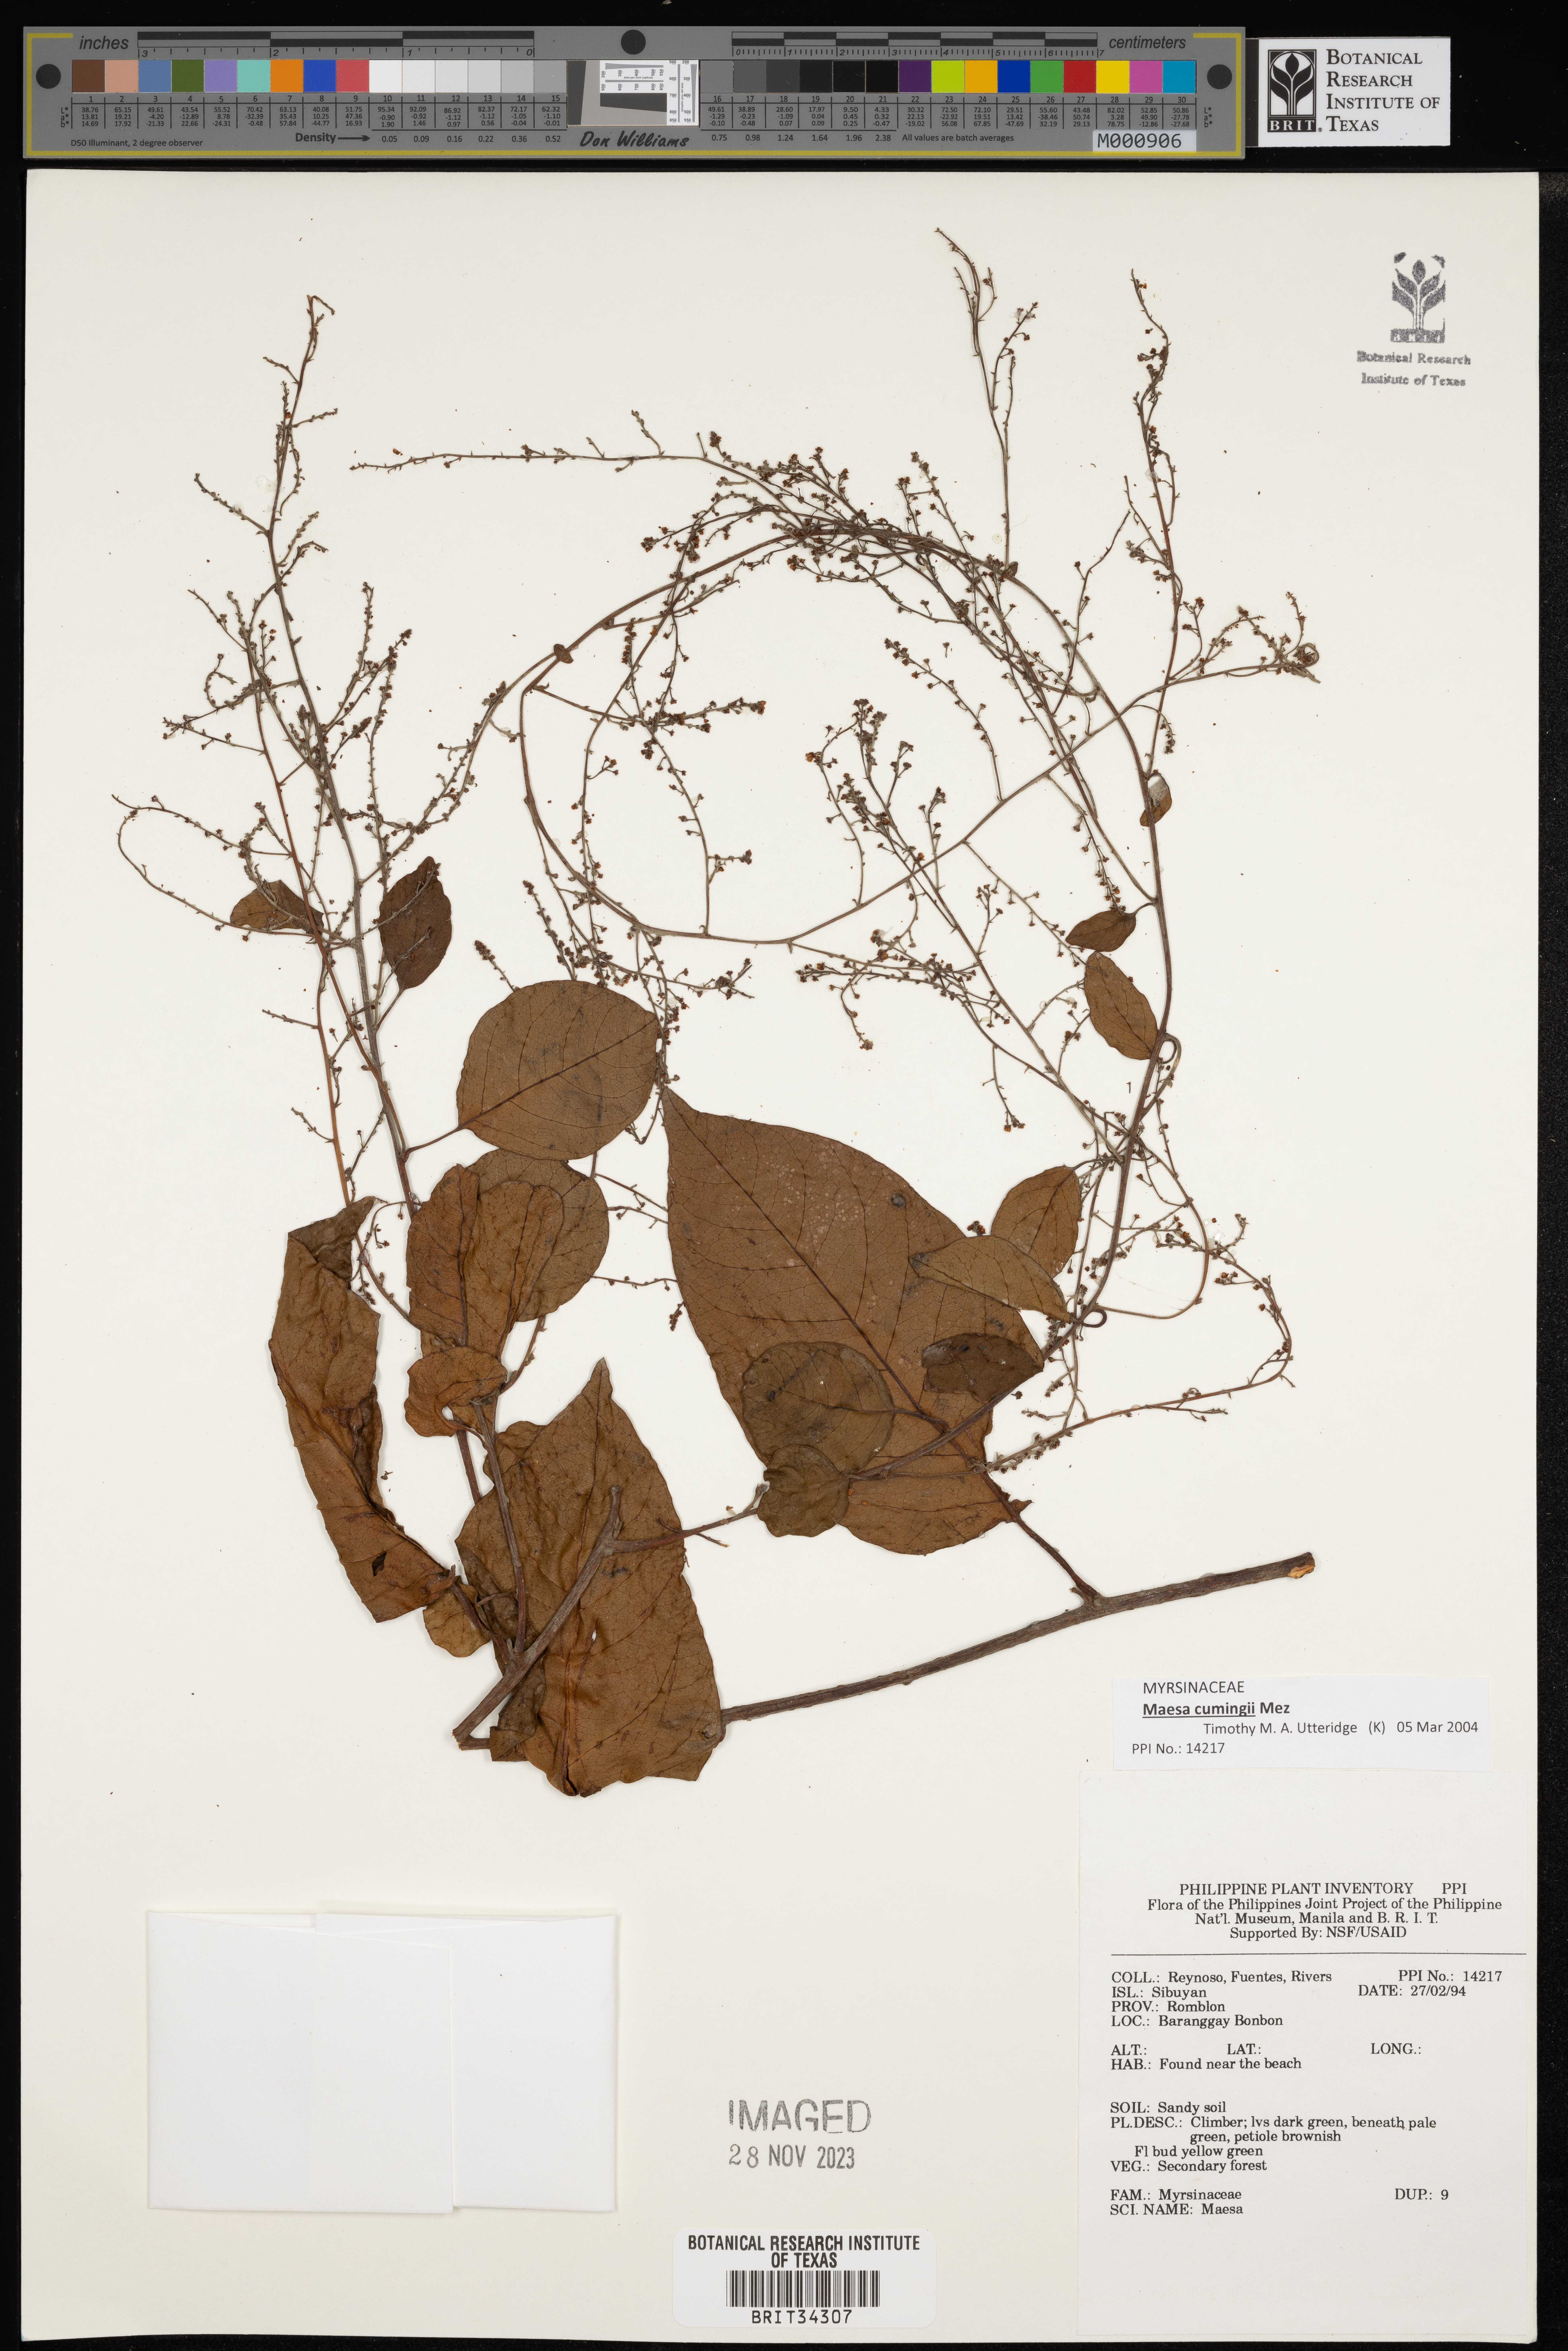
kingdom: Plantae
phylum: Tracheophyta
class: Magnoliopsida
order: Ericales
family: Primulaceae
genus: Maesa
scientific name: Maesa
